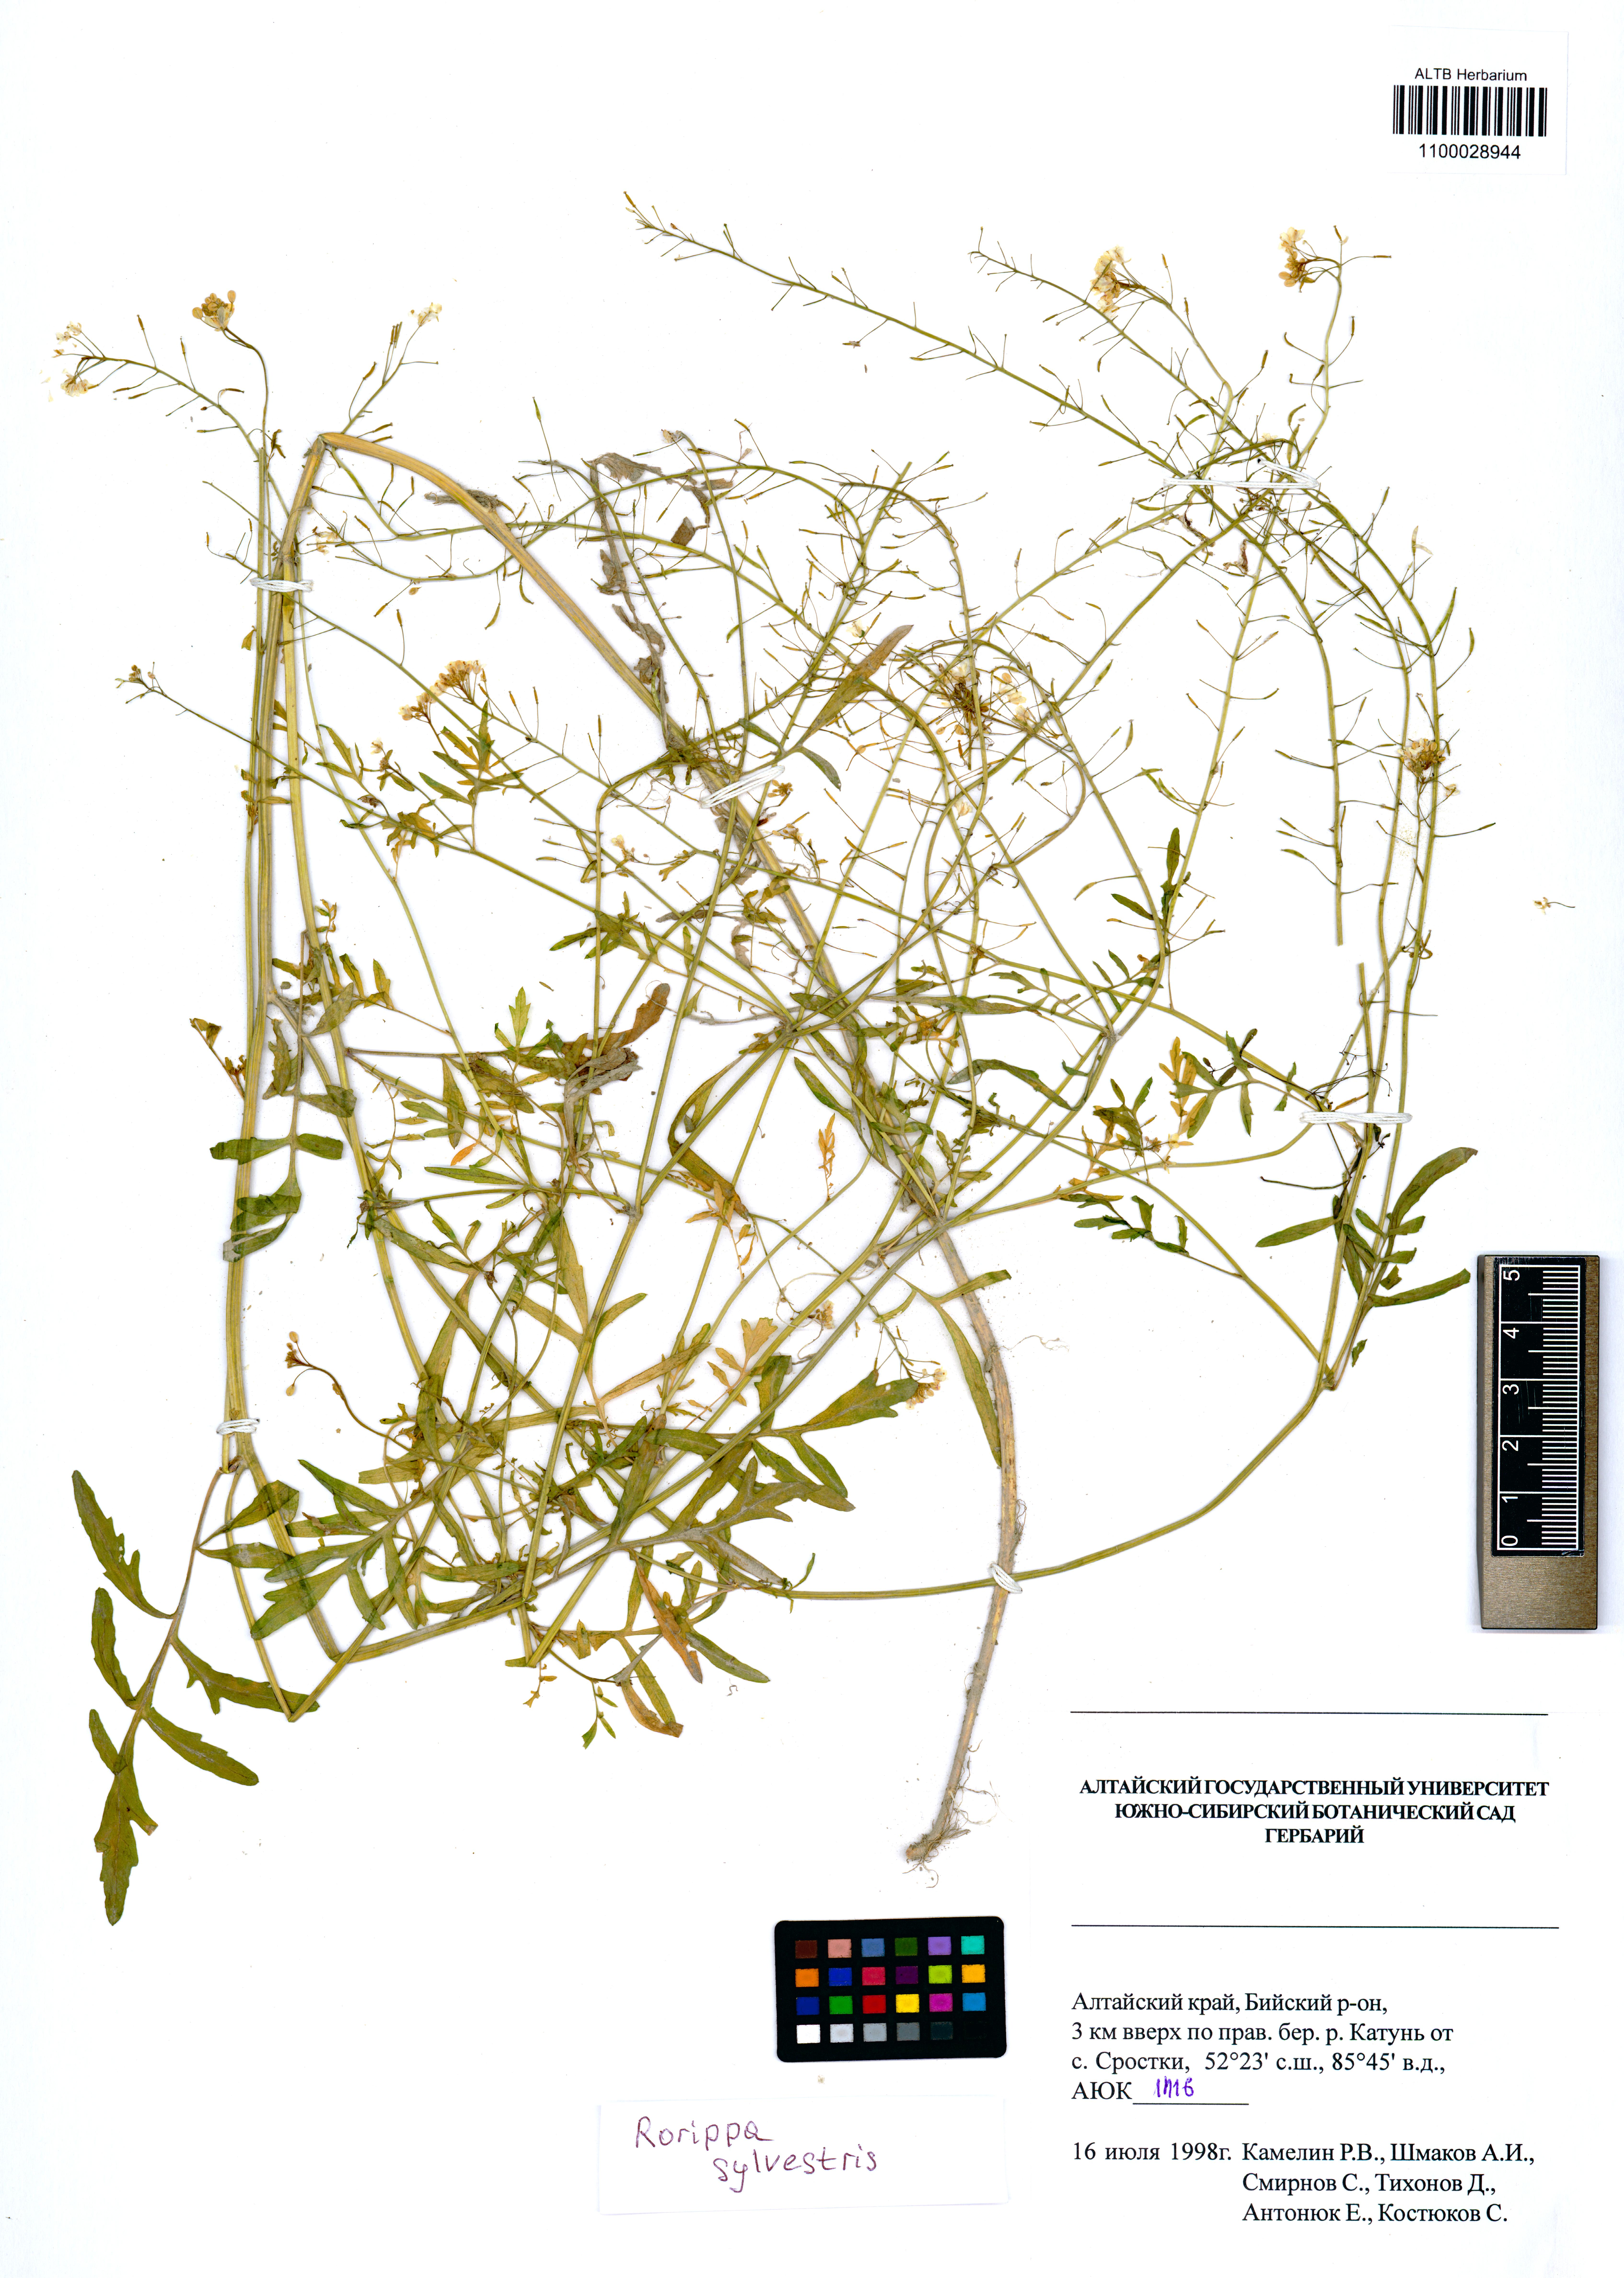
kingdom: Plantae
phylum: Tracheophyta
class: Magnoliopsida
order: Brassicales
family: Brassicaceae
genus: Rorippa
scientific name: Rorippa sylvestris
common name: Creeping yellowcress
